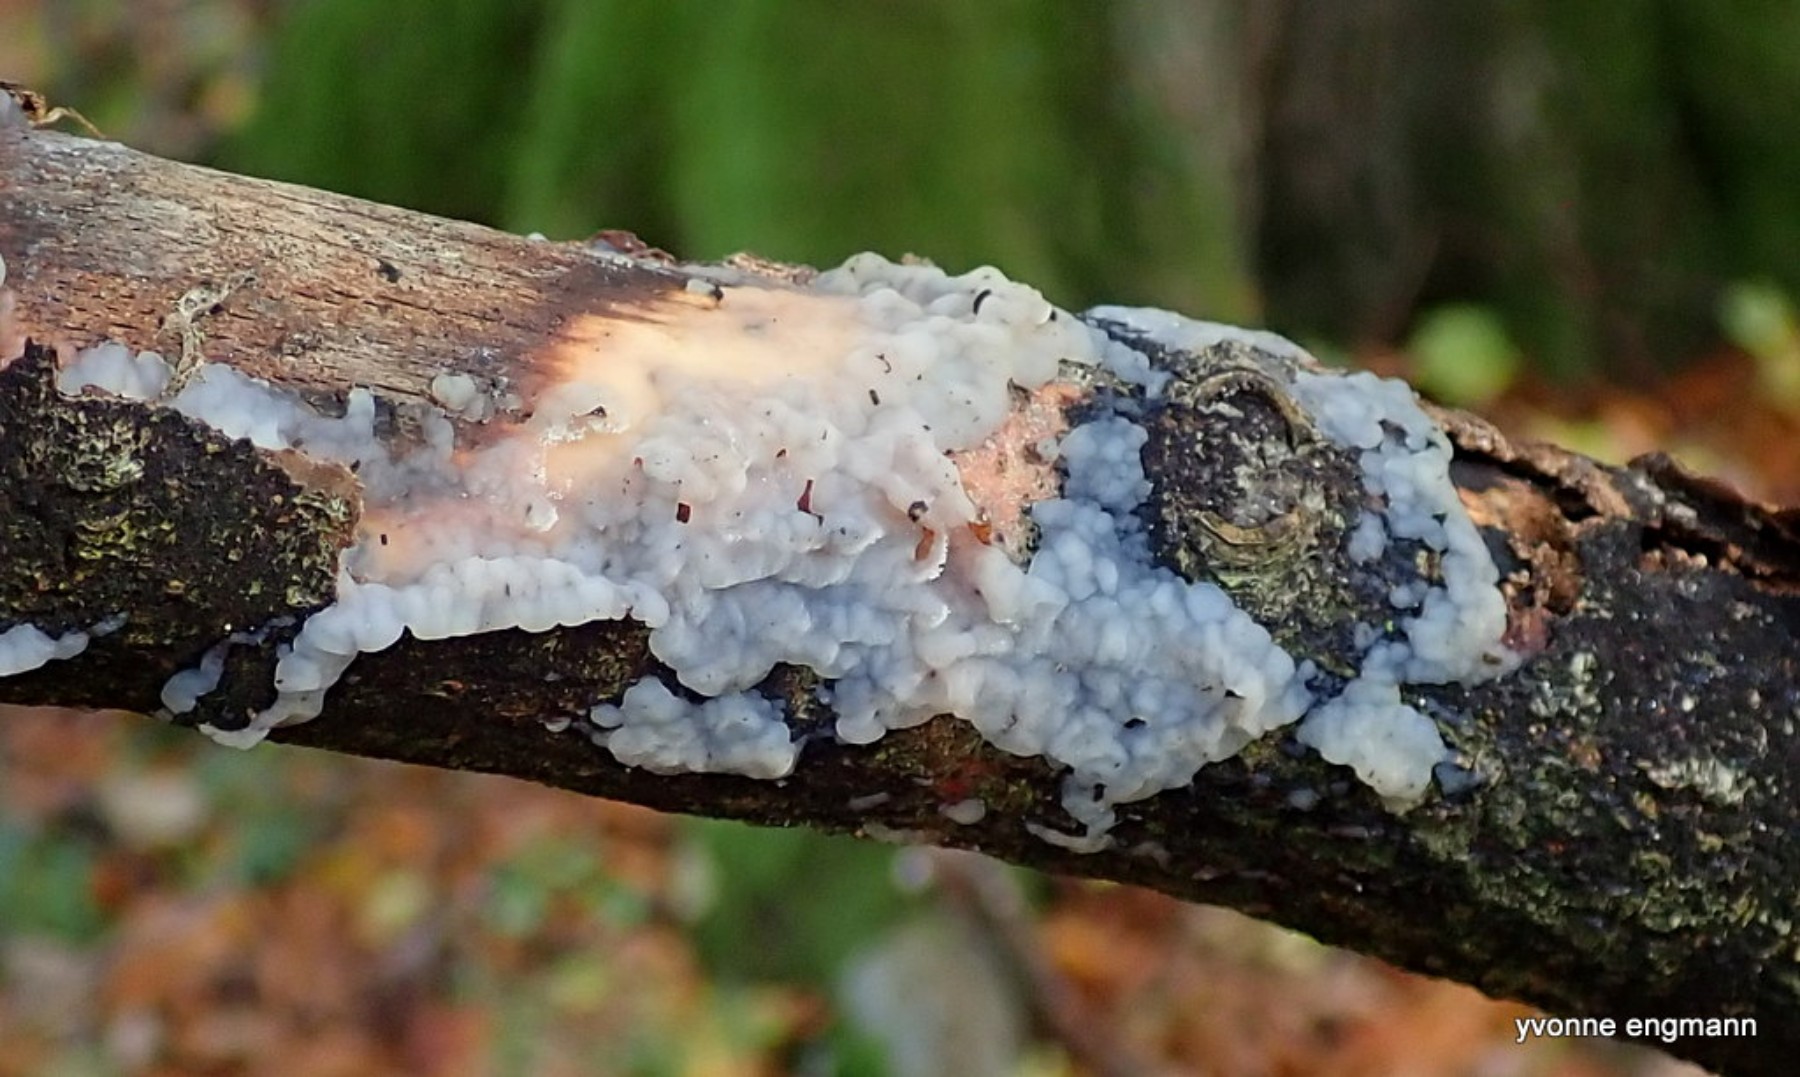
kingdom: Fungi
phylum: Basidiomycota
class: Agaricomycetes
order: Auriculariales
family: Auriculariaceae
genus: Exidia
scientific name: Exidia thuretiana
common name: hvidlig bævretop
